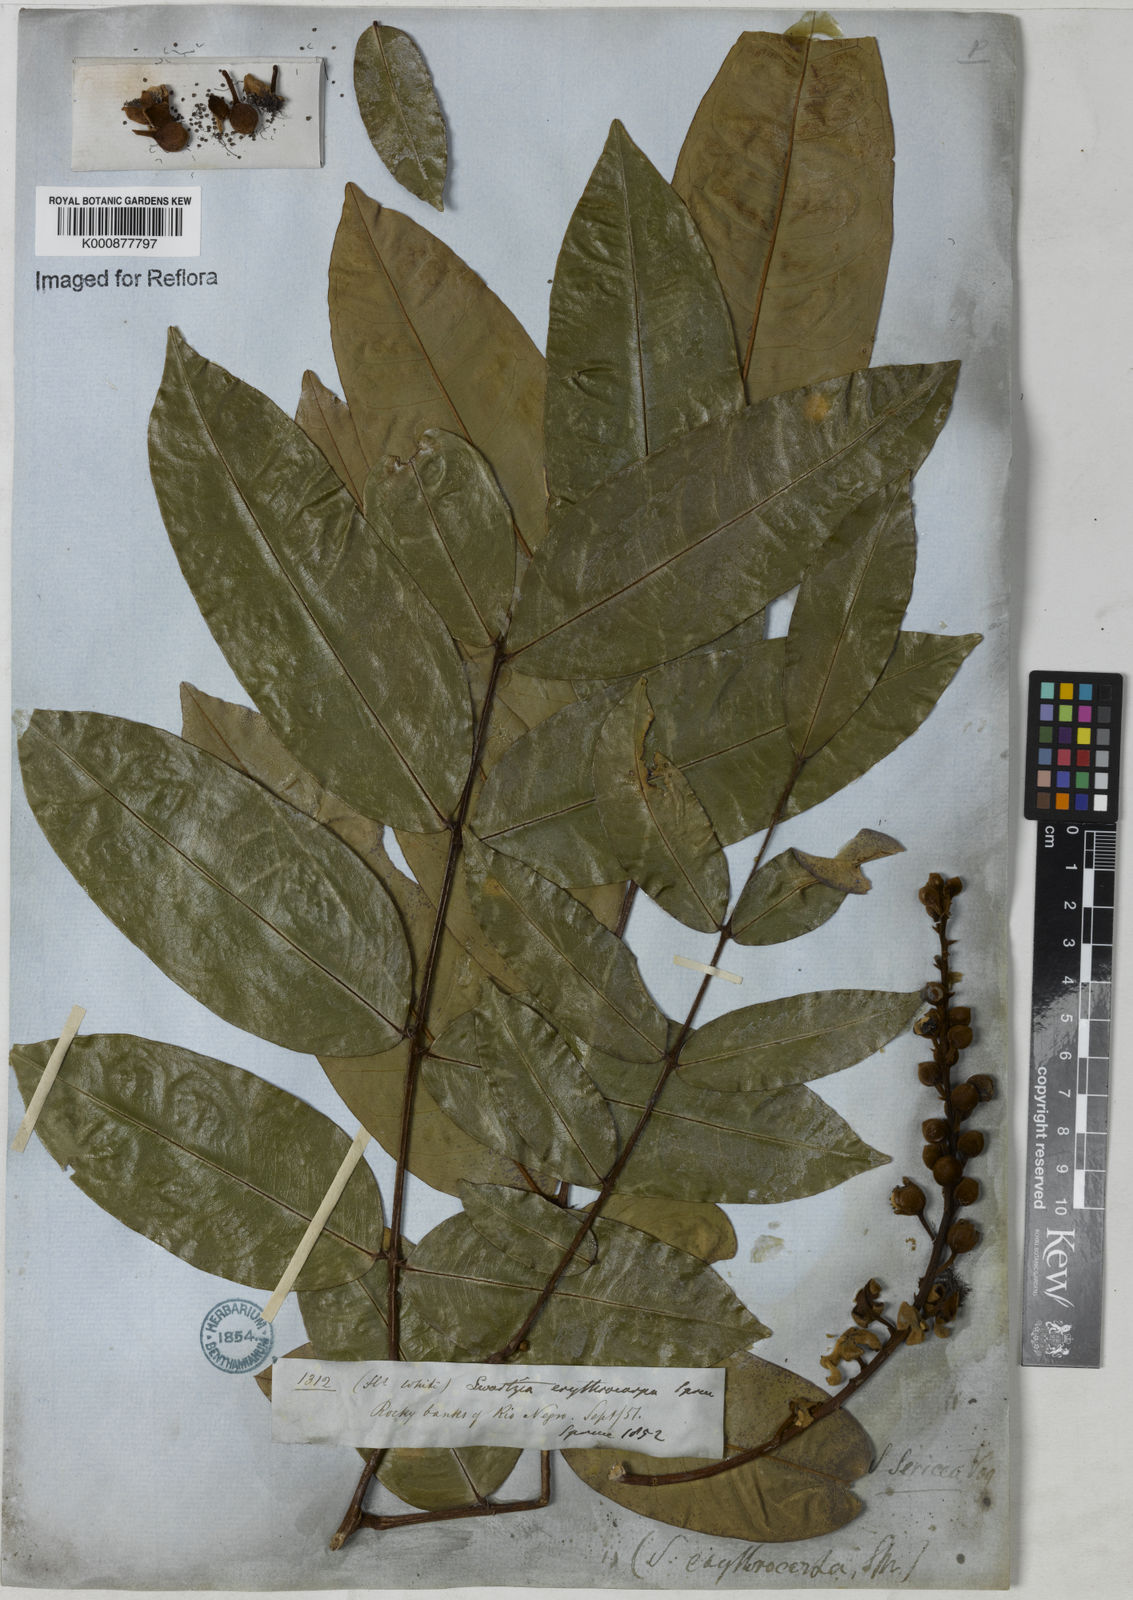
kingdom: Plantae
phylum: Tracheophyta
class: Magnoliopsida
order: Fabales
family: Fabaceae
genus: Swartzia
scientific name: Swartzia sericea
